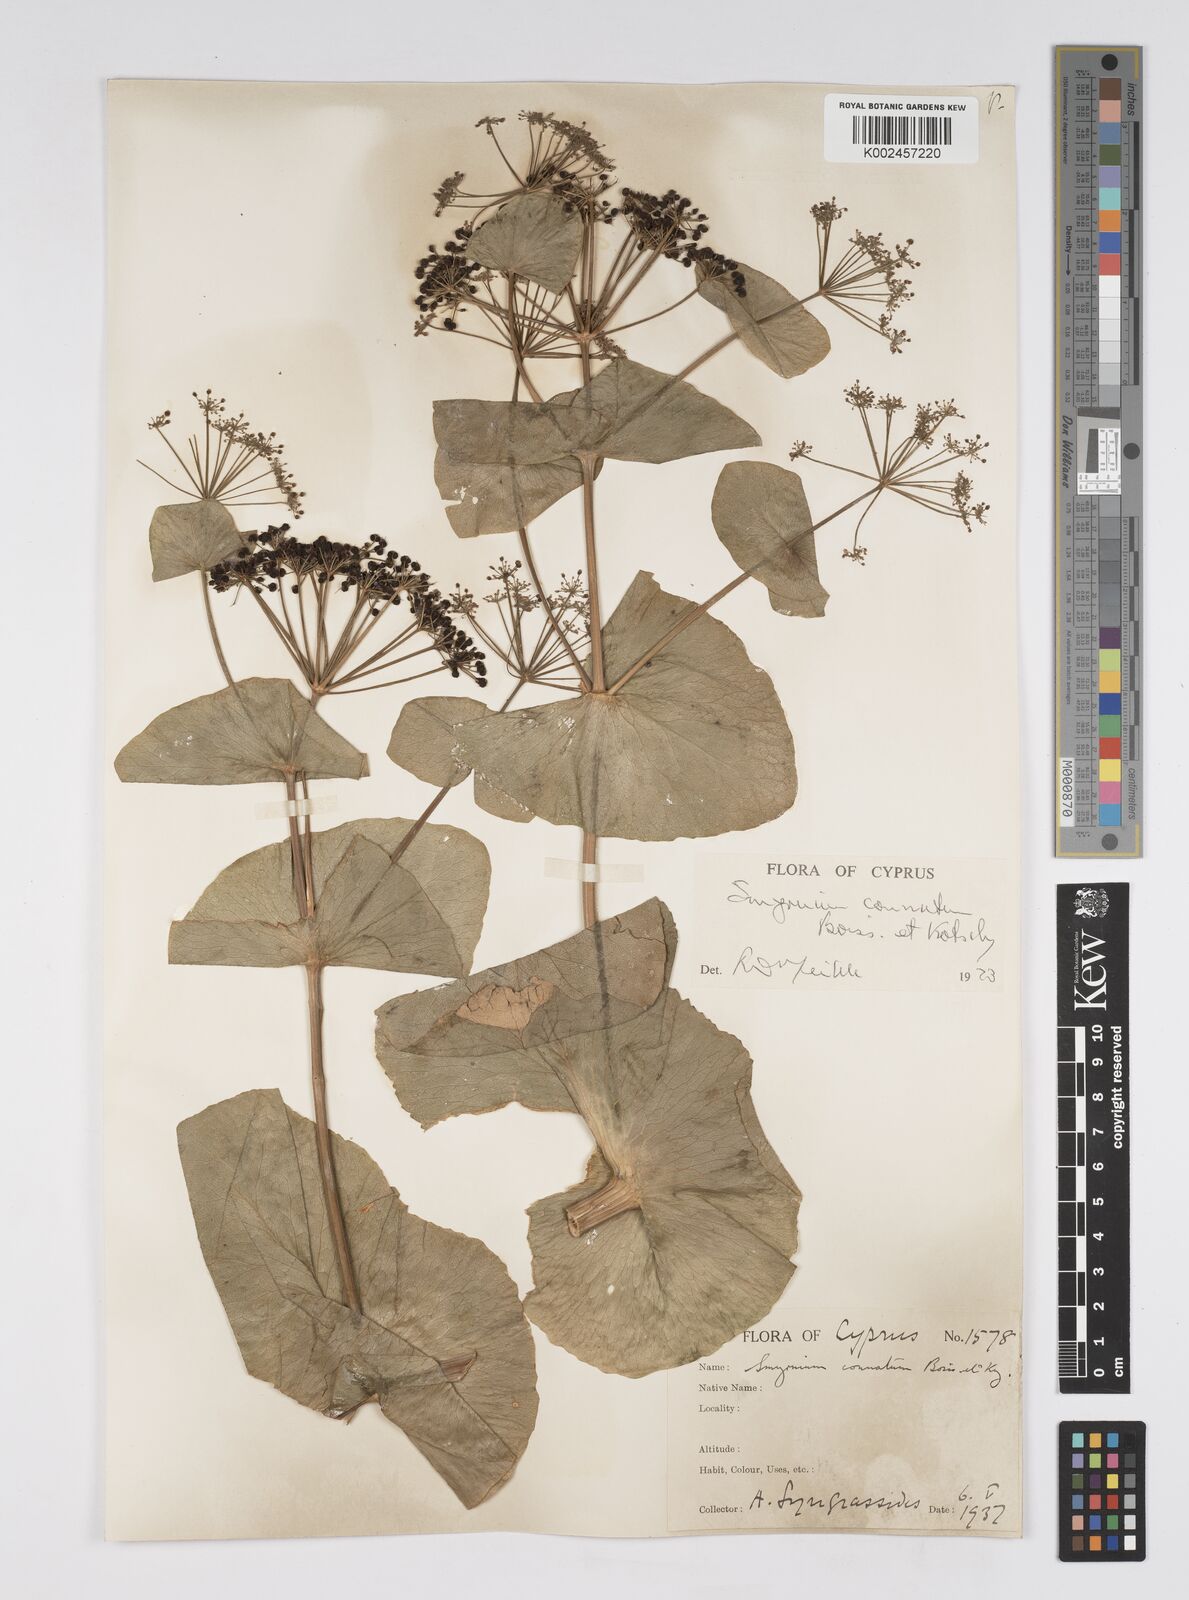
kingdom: Plantae
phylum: Tracheophyta
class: Magnoliopsida
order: Apiales
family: Apiaceae
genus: Smyrnium
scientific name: Smyrnium connatum
